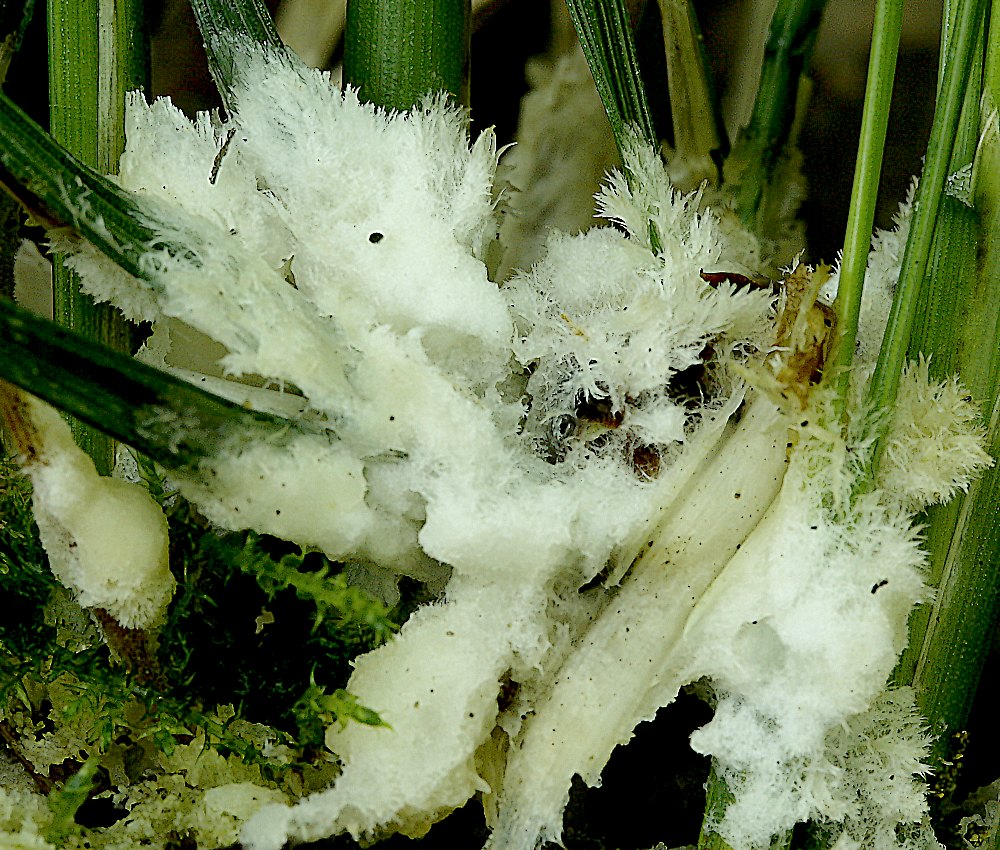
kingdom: Fungi
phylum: Basidiomycota
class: Agaricomycetes
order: Sebacinales
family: Sebacinaceae
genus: Sebacina
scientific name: Sebacina incrustans
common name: krybende bævretalg
